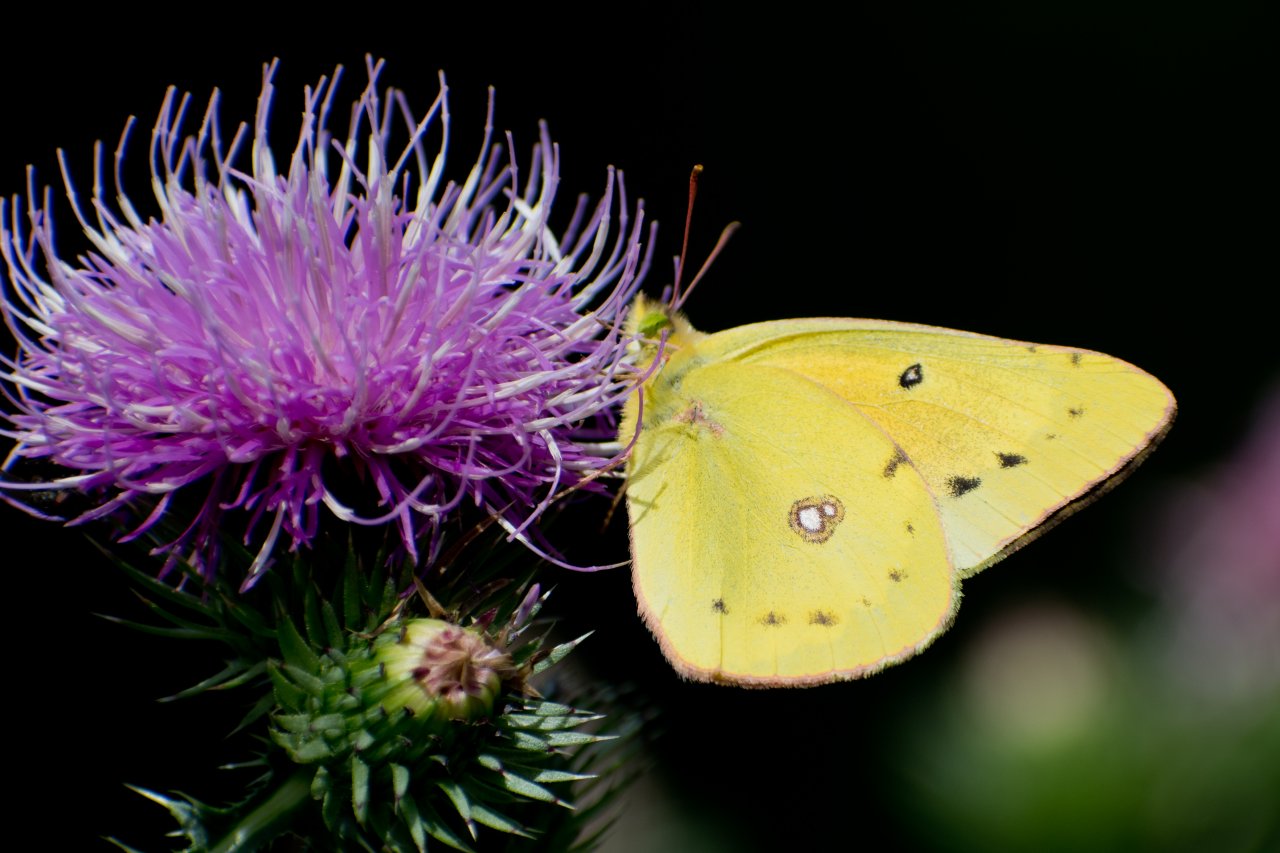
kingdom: Animalia
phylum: Arthropoda
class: Insecta
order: Lepidoptera
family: Pieridae
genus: Colias
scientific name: Colias eurytheme
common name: Orange Sulphur
